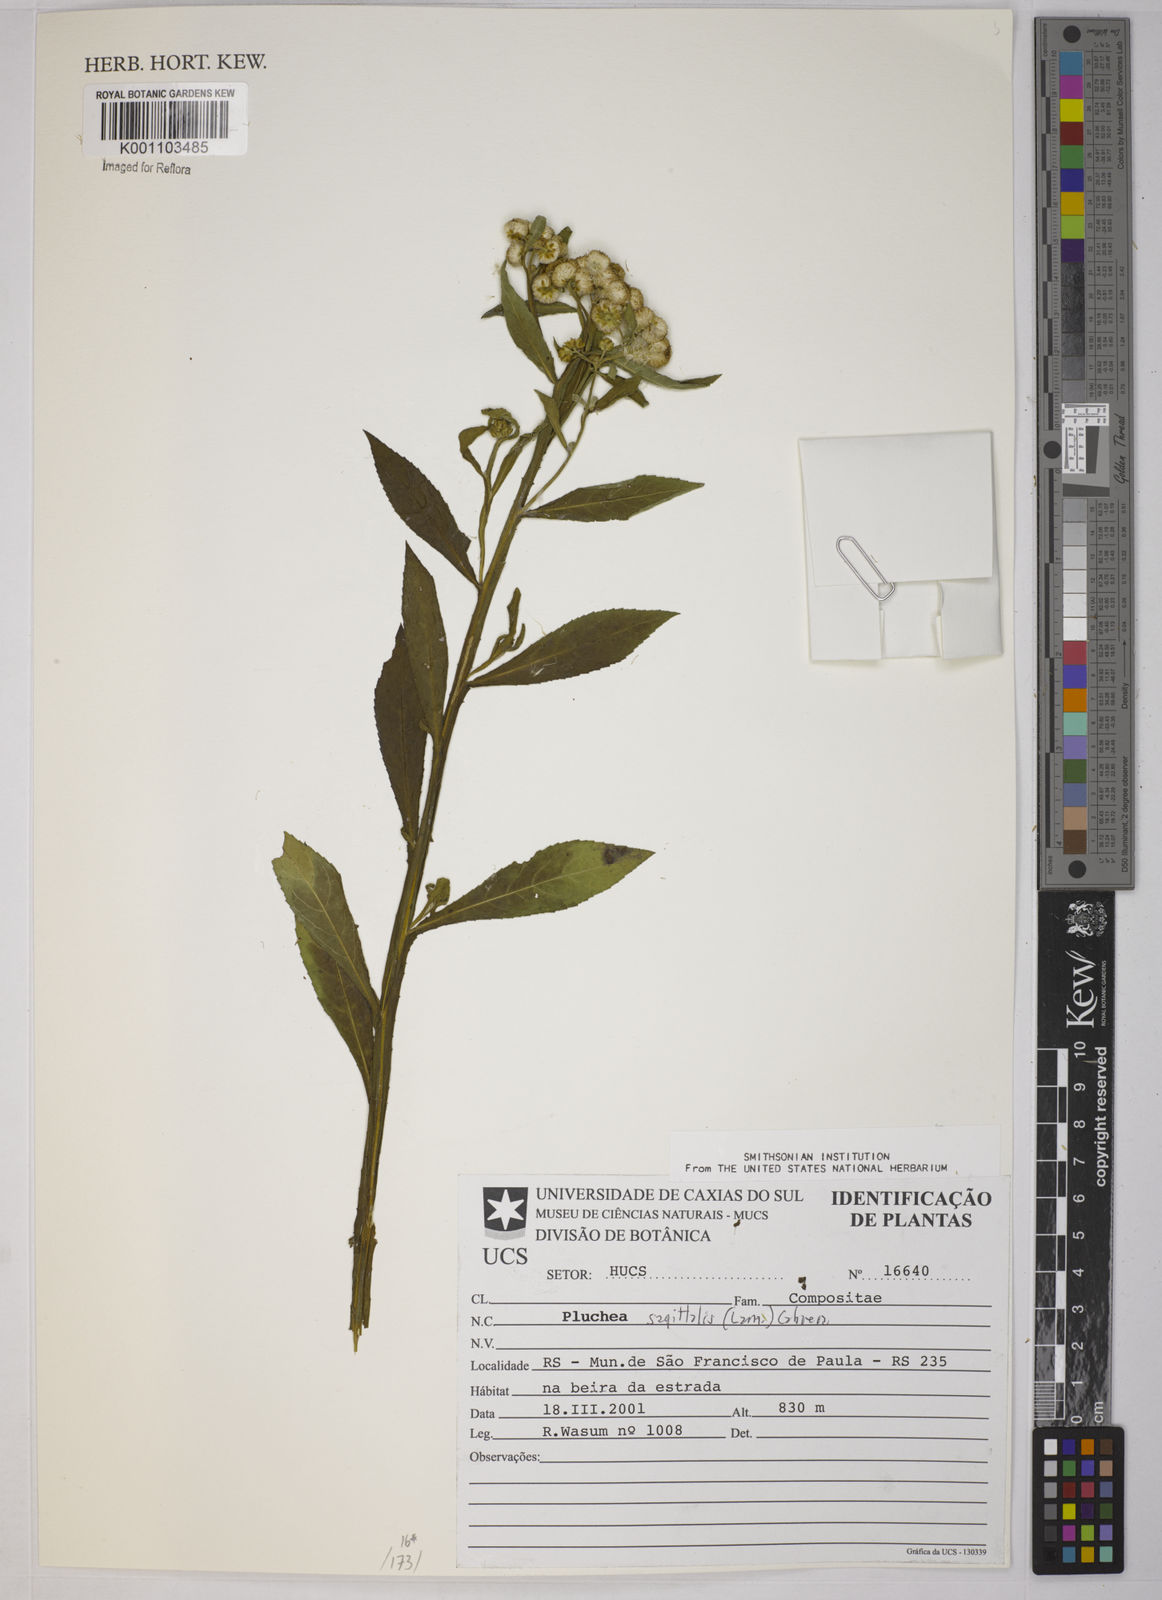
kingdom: Plantae
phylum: Tracheophyta
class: Magnoliopsida
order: Asterales
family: Asteraceae
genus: Pluchea
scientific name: Pluchea sagittalis
